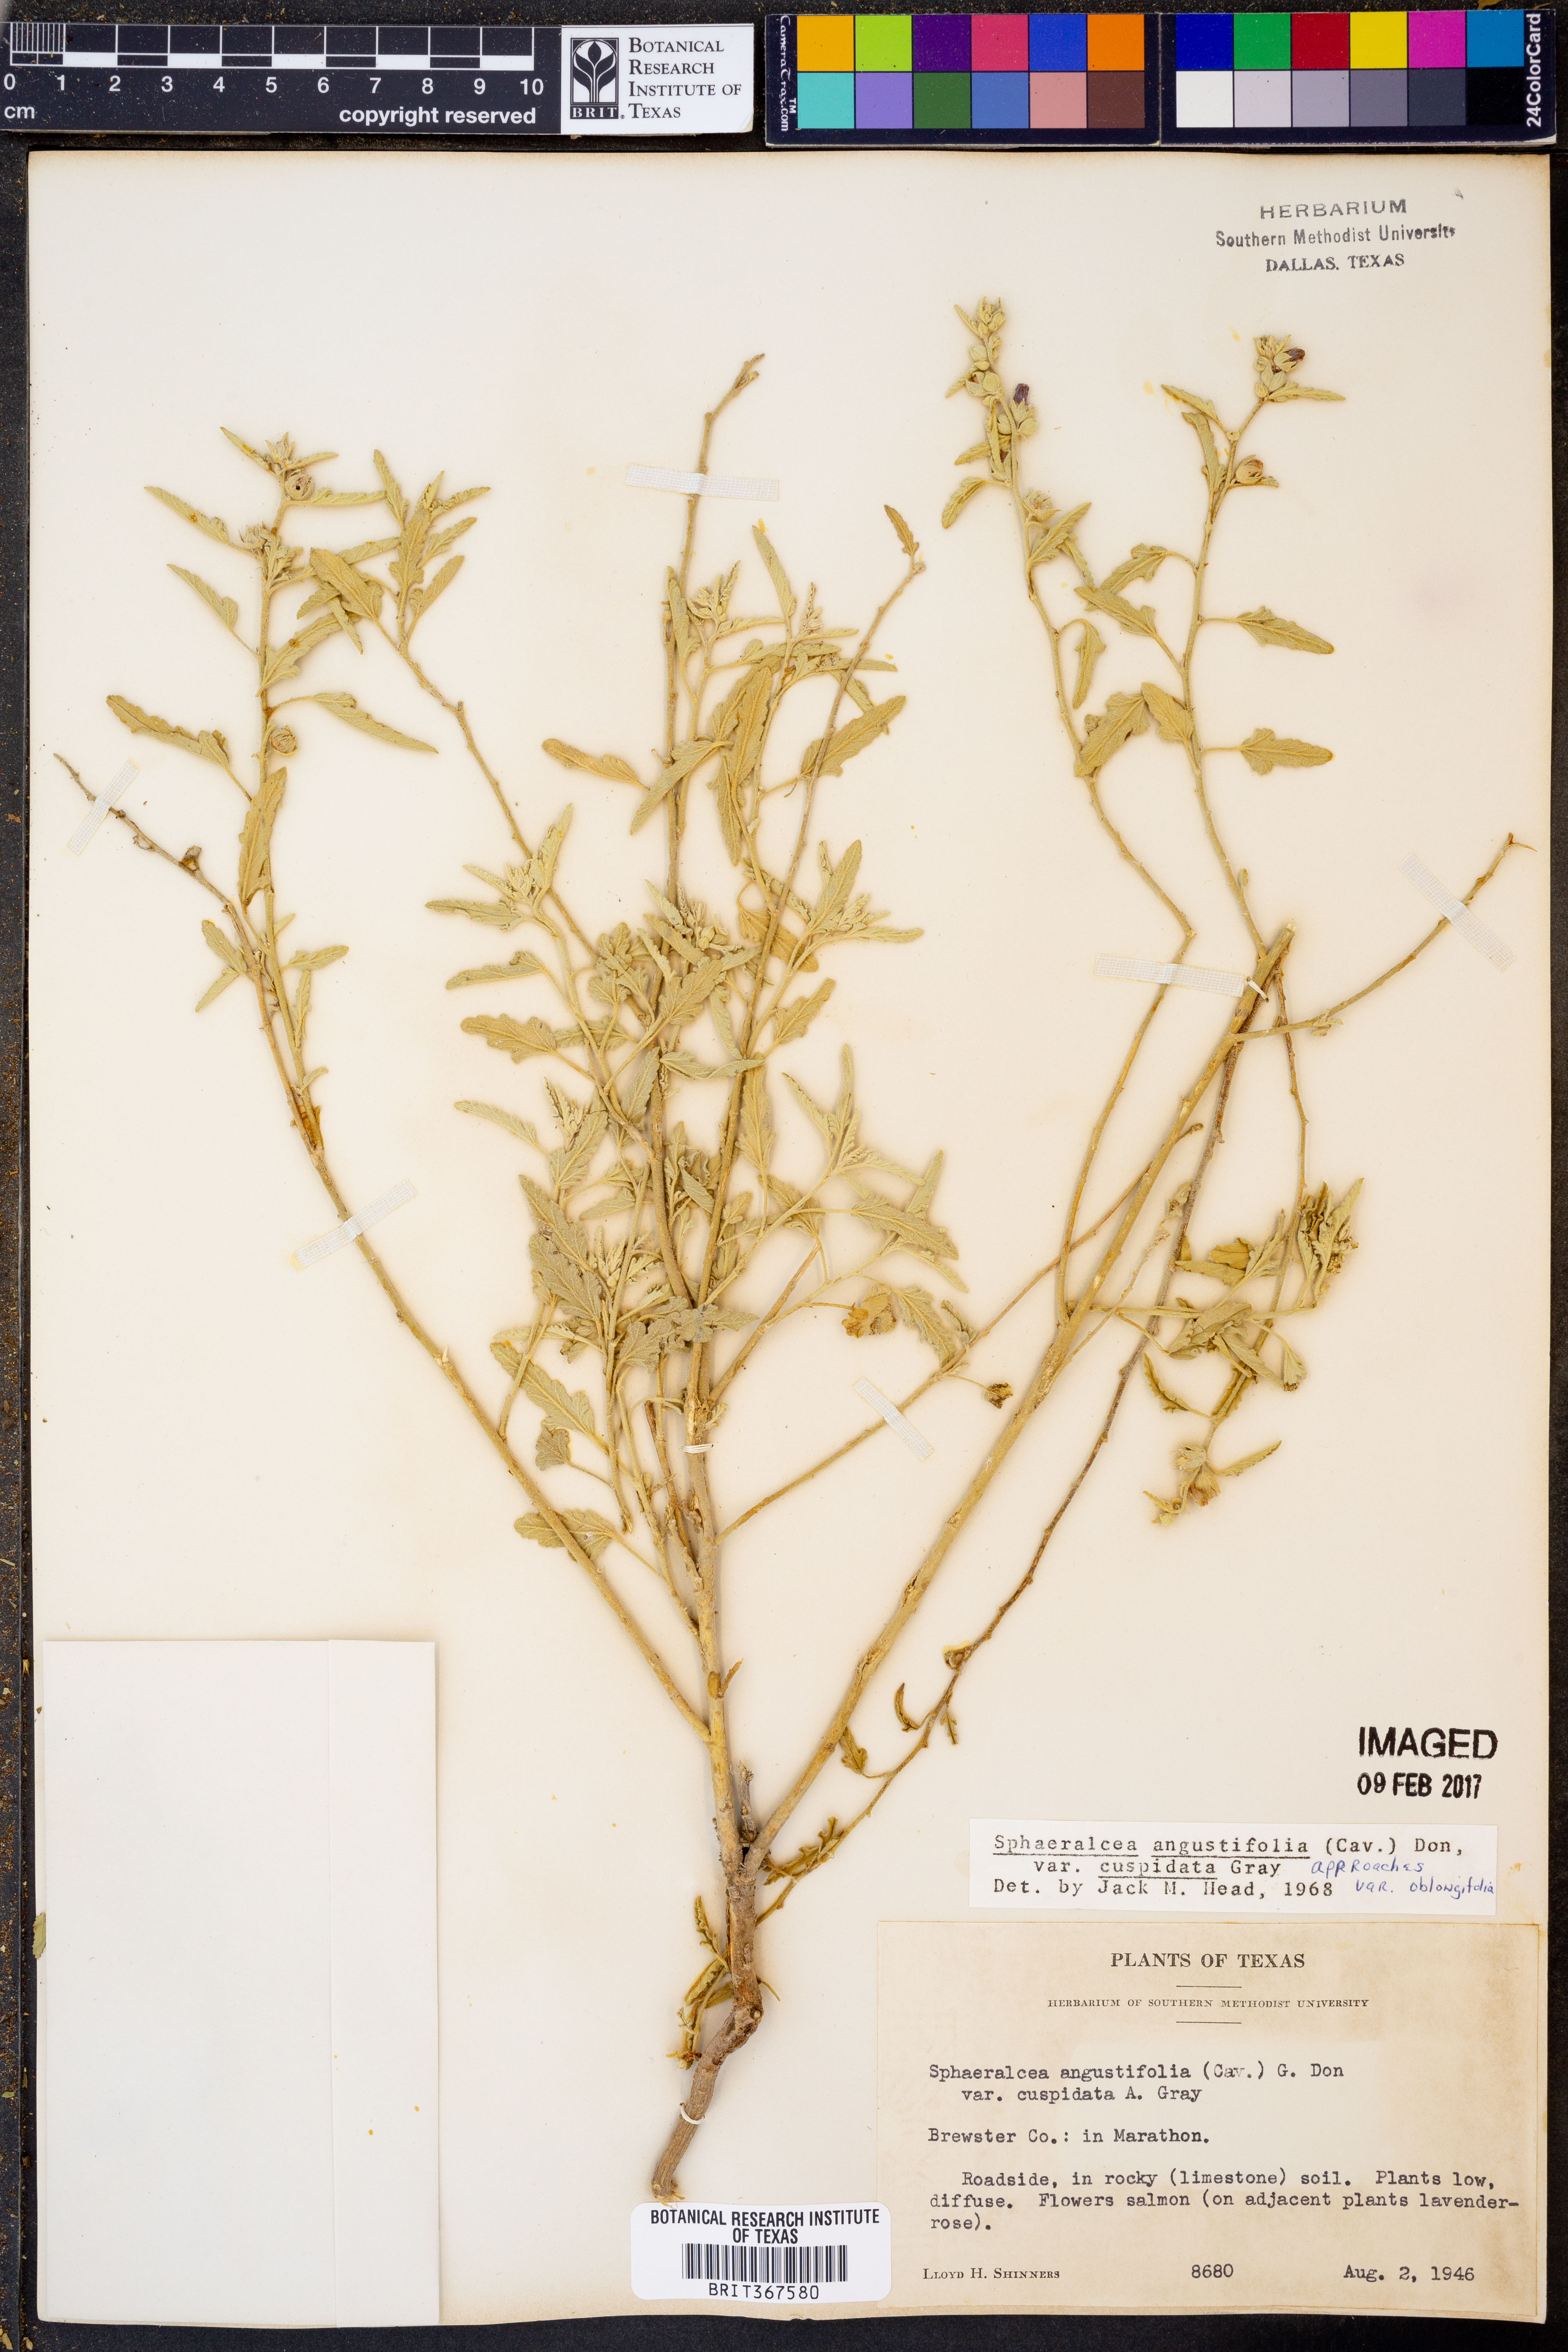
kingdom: Plantae
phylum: Tracheophyta
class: Magnoliopsida
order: Malvales
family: Malvaceae
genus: Sphaeralcea
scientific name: Sphaeralcea angustifolia
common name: Copper globe-mallow
